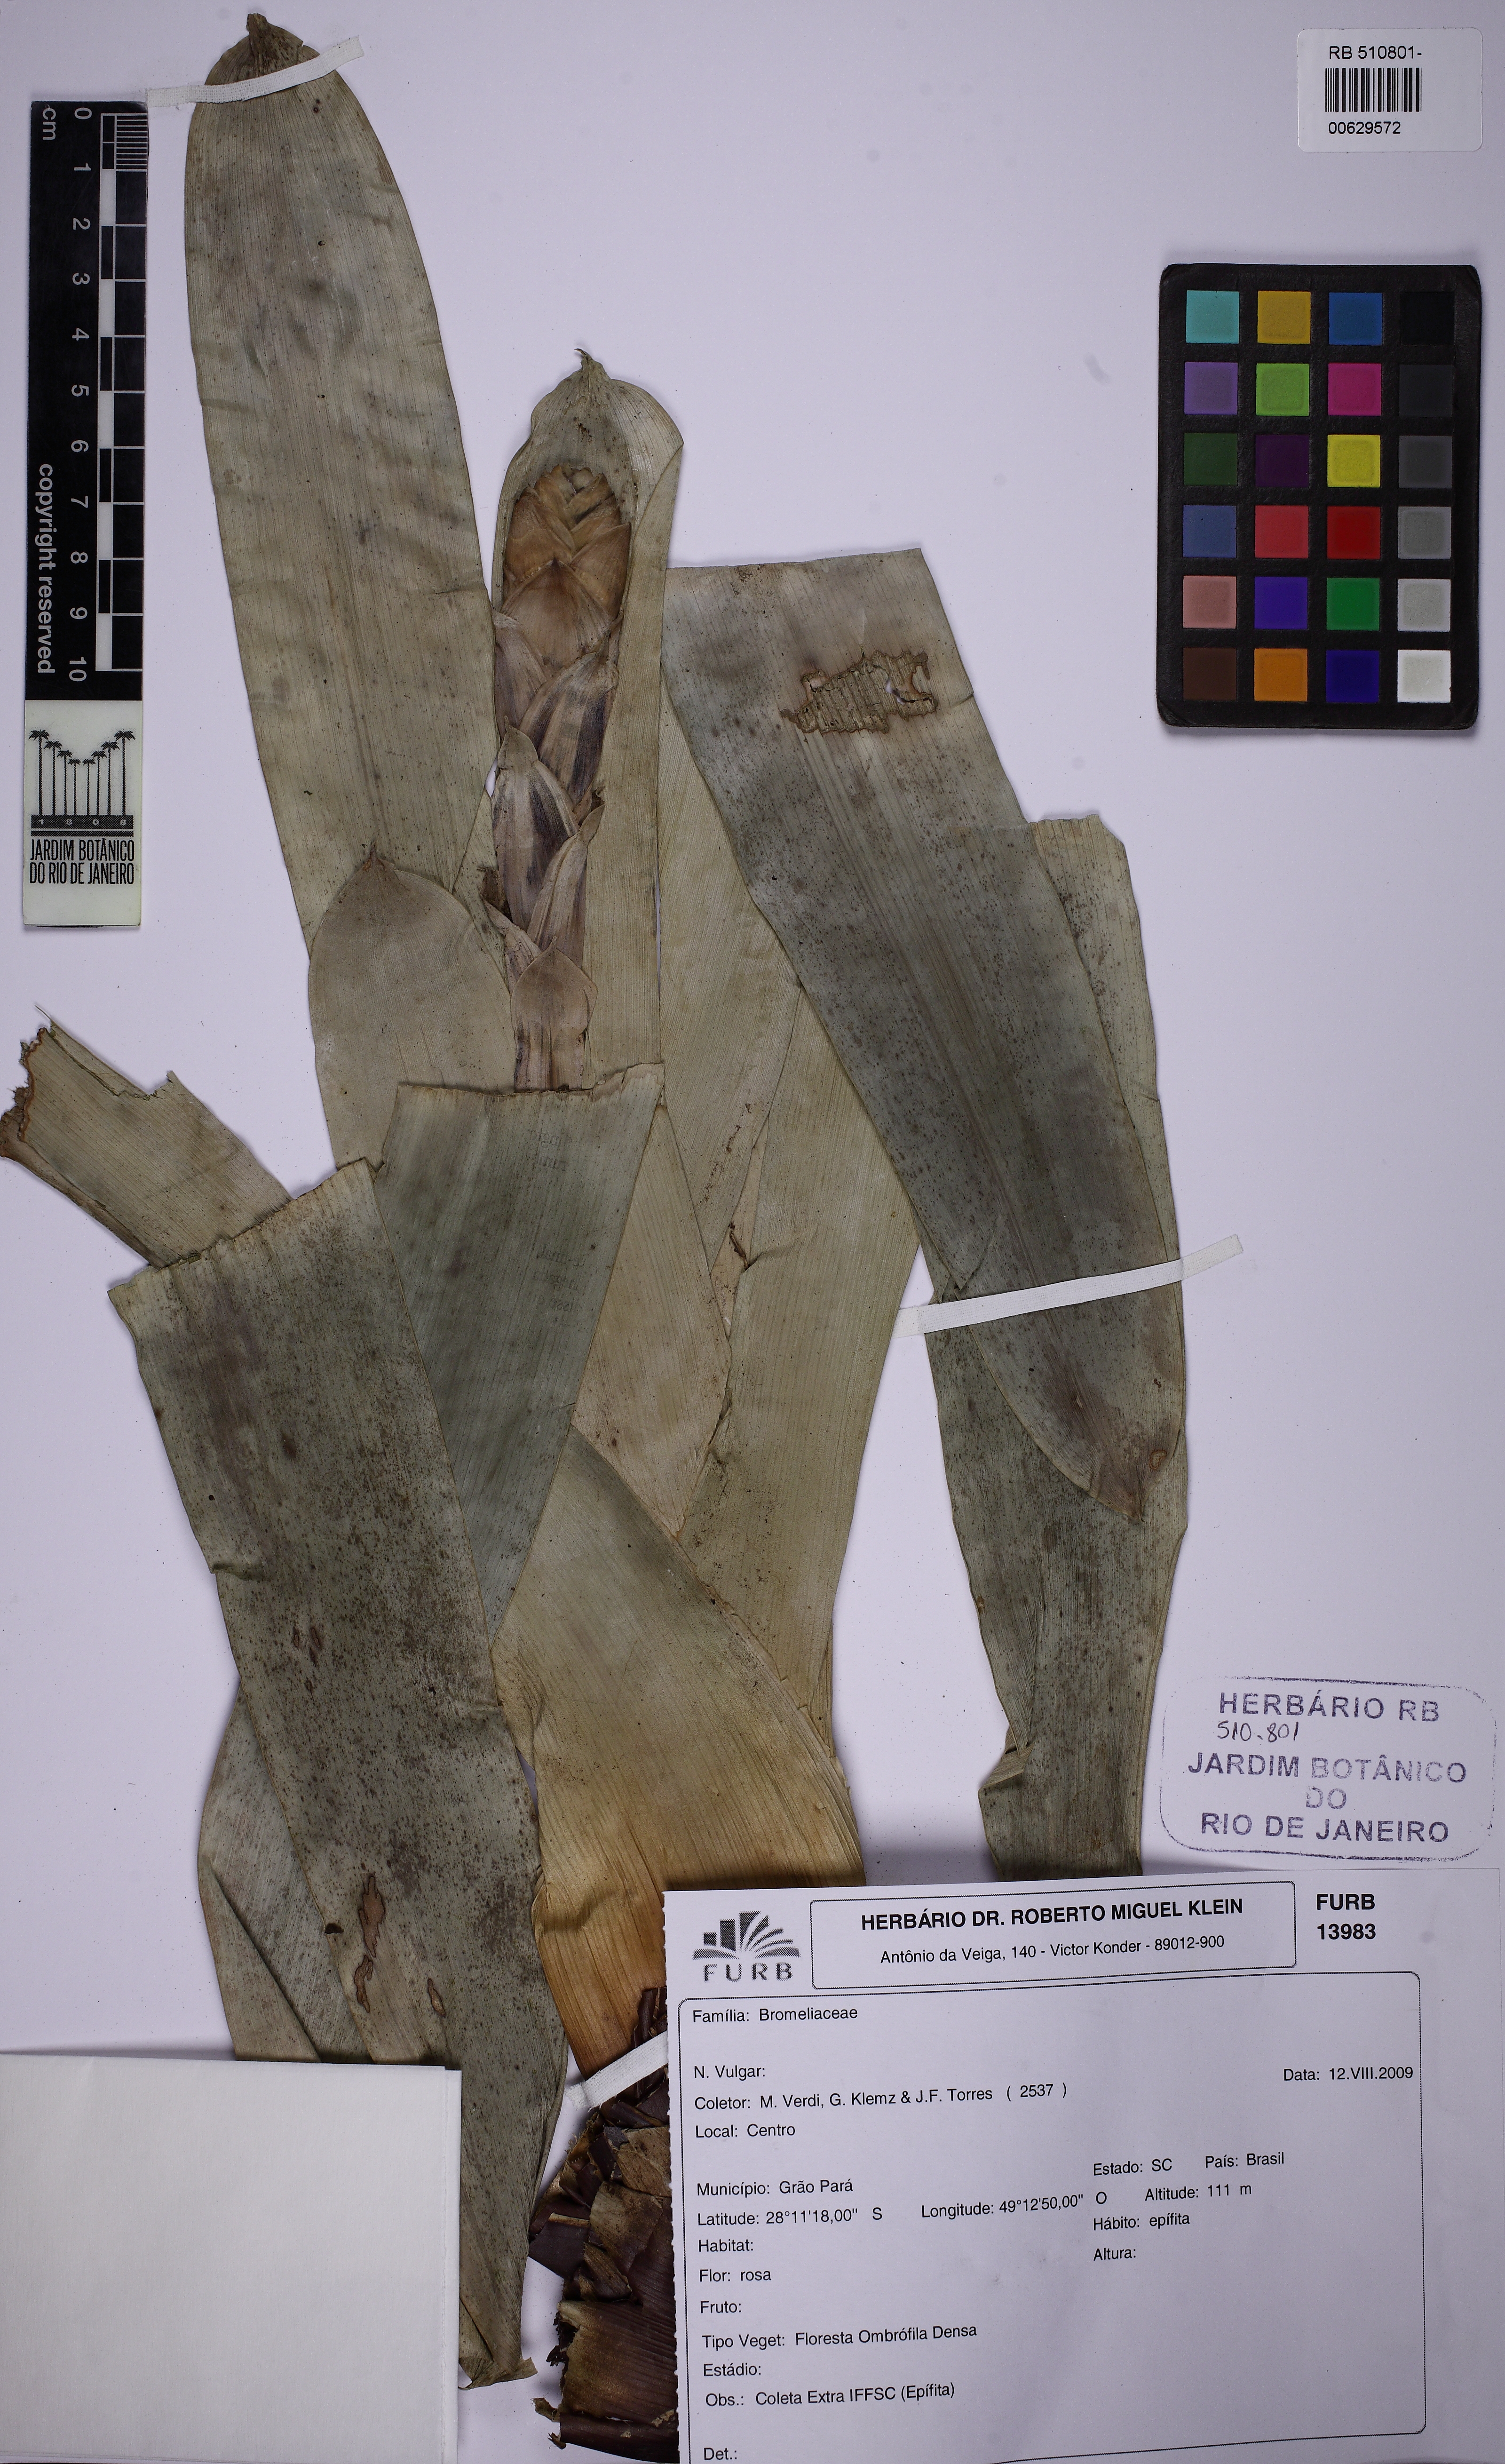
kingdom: Plantae
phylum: Tracheophyta
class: Liliopsida
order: Poales
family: Bromeliaceae
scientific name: Bromeliaceae
